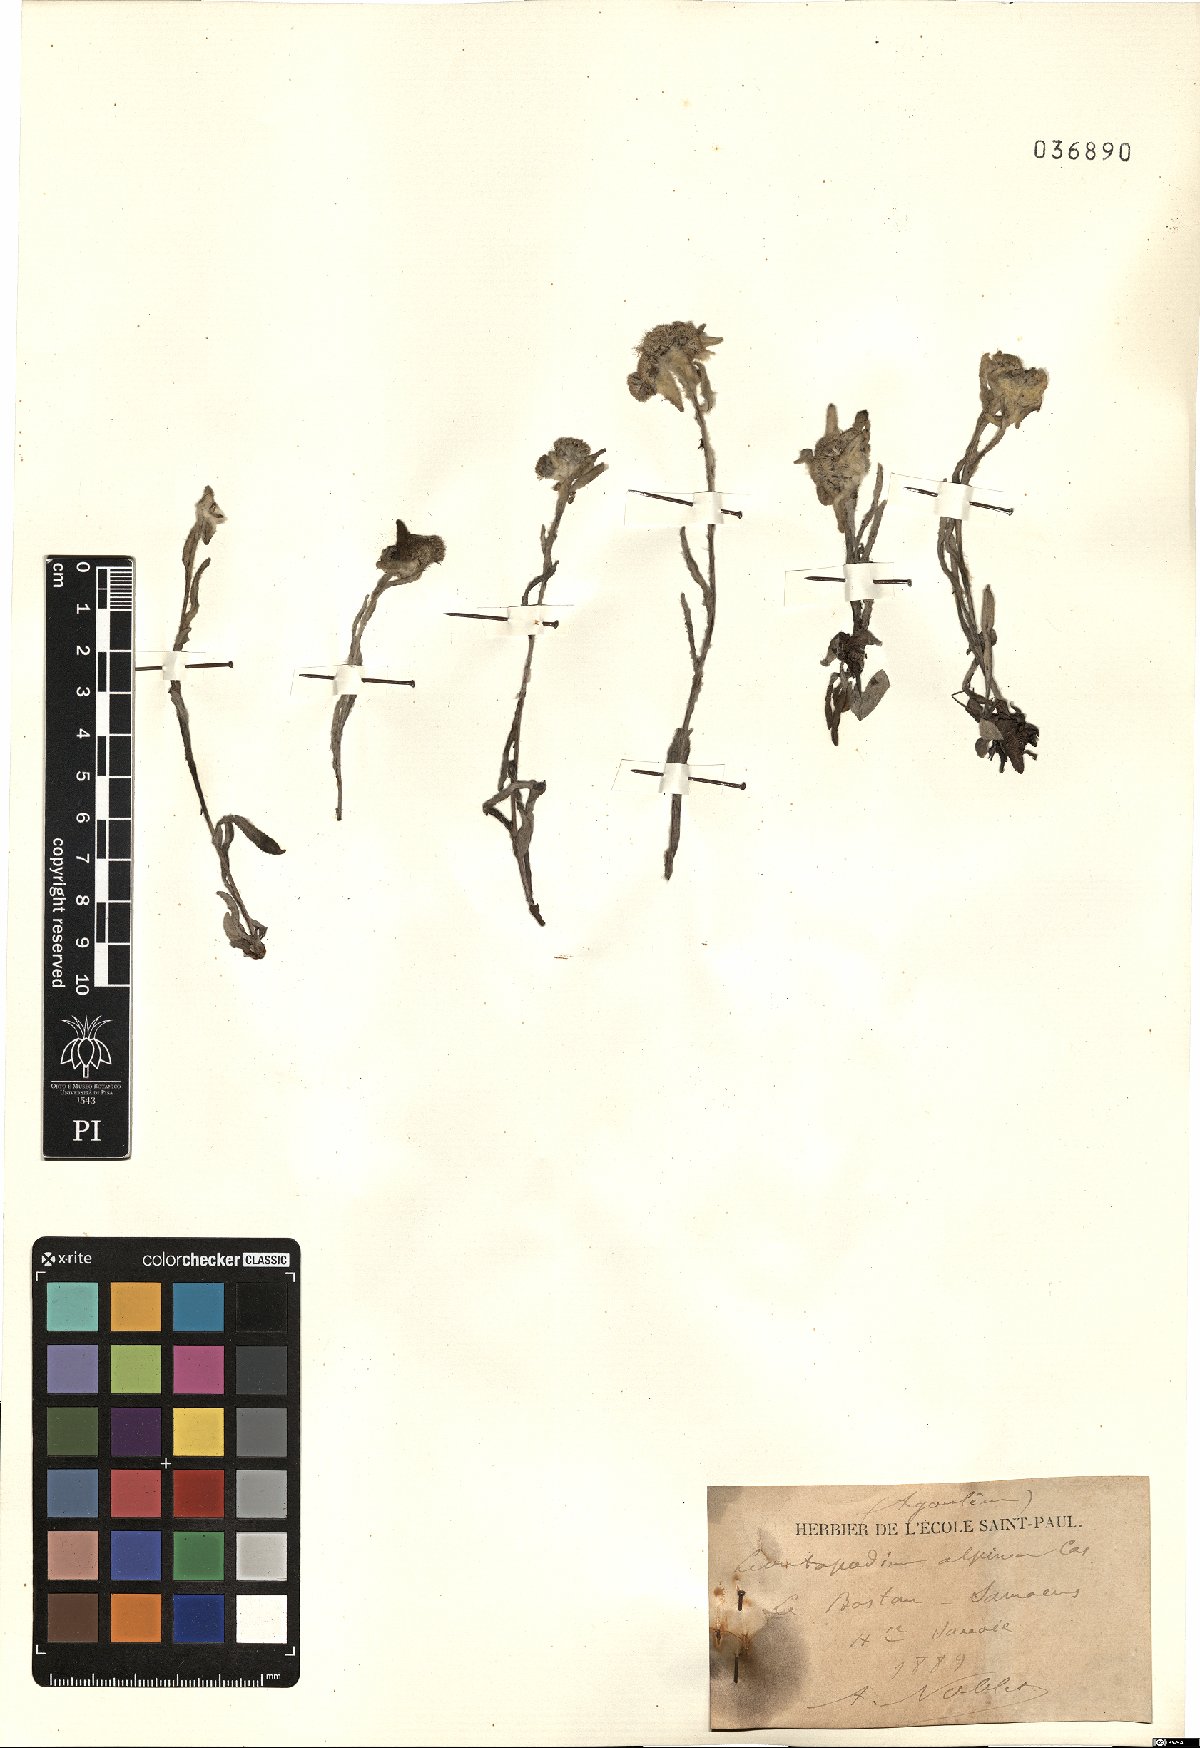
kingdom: Plantae
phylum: Tracheophyta
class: Magnoliopsida
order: Asterales
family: Asteraceae
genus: Leontopodium
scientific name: Leontopodium nivale
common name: Edelweiss
